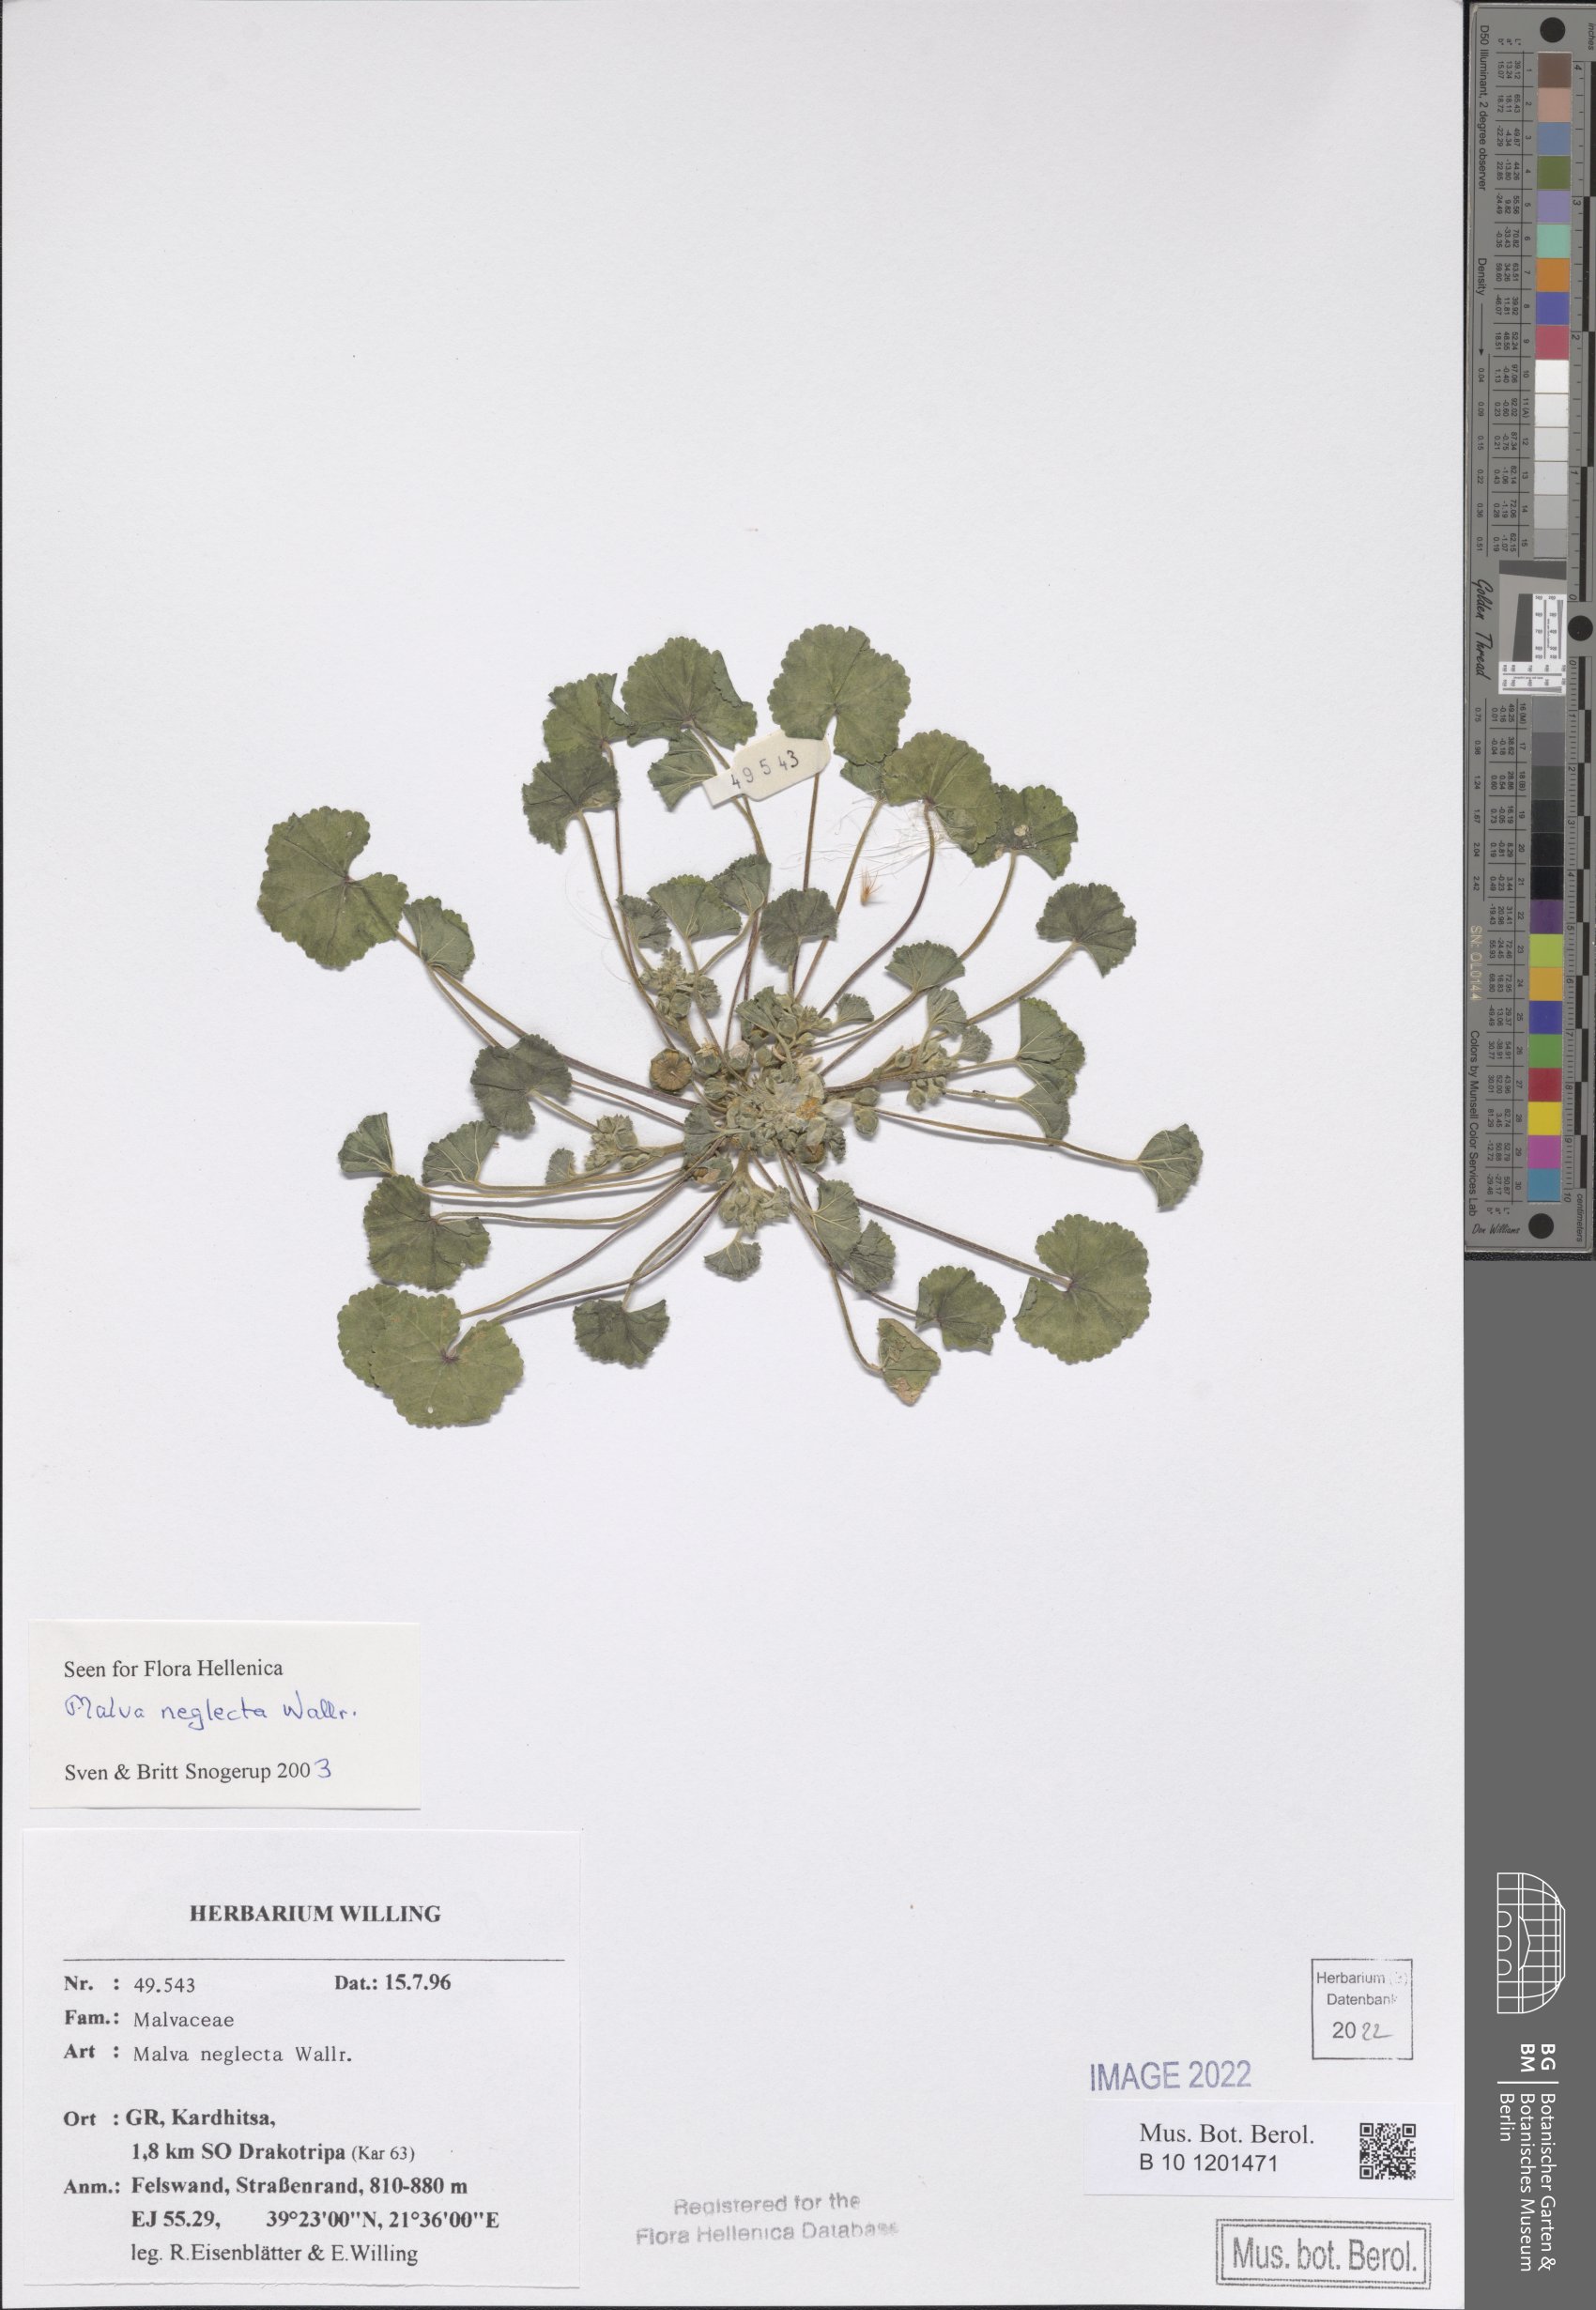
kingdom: Plantae
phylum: Tracheophyta
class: Magnoliopsida
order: Malvales
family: Malvaceae
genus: Malva
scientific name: Malva neglecta
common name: Common mallow
